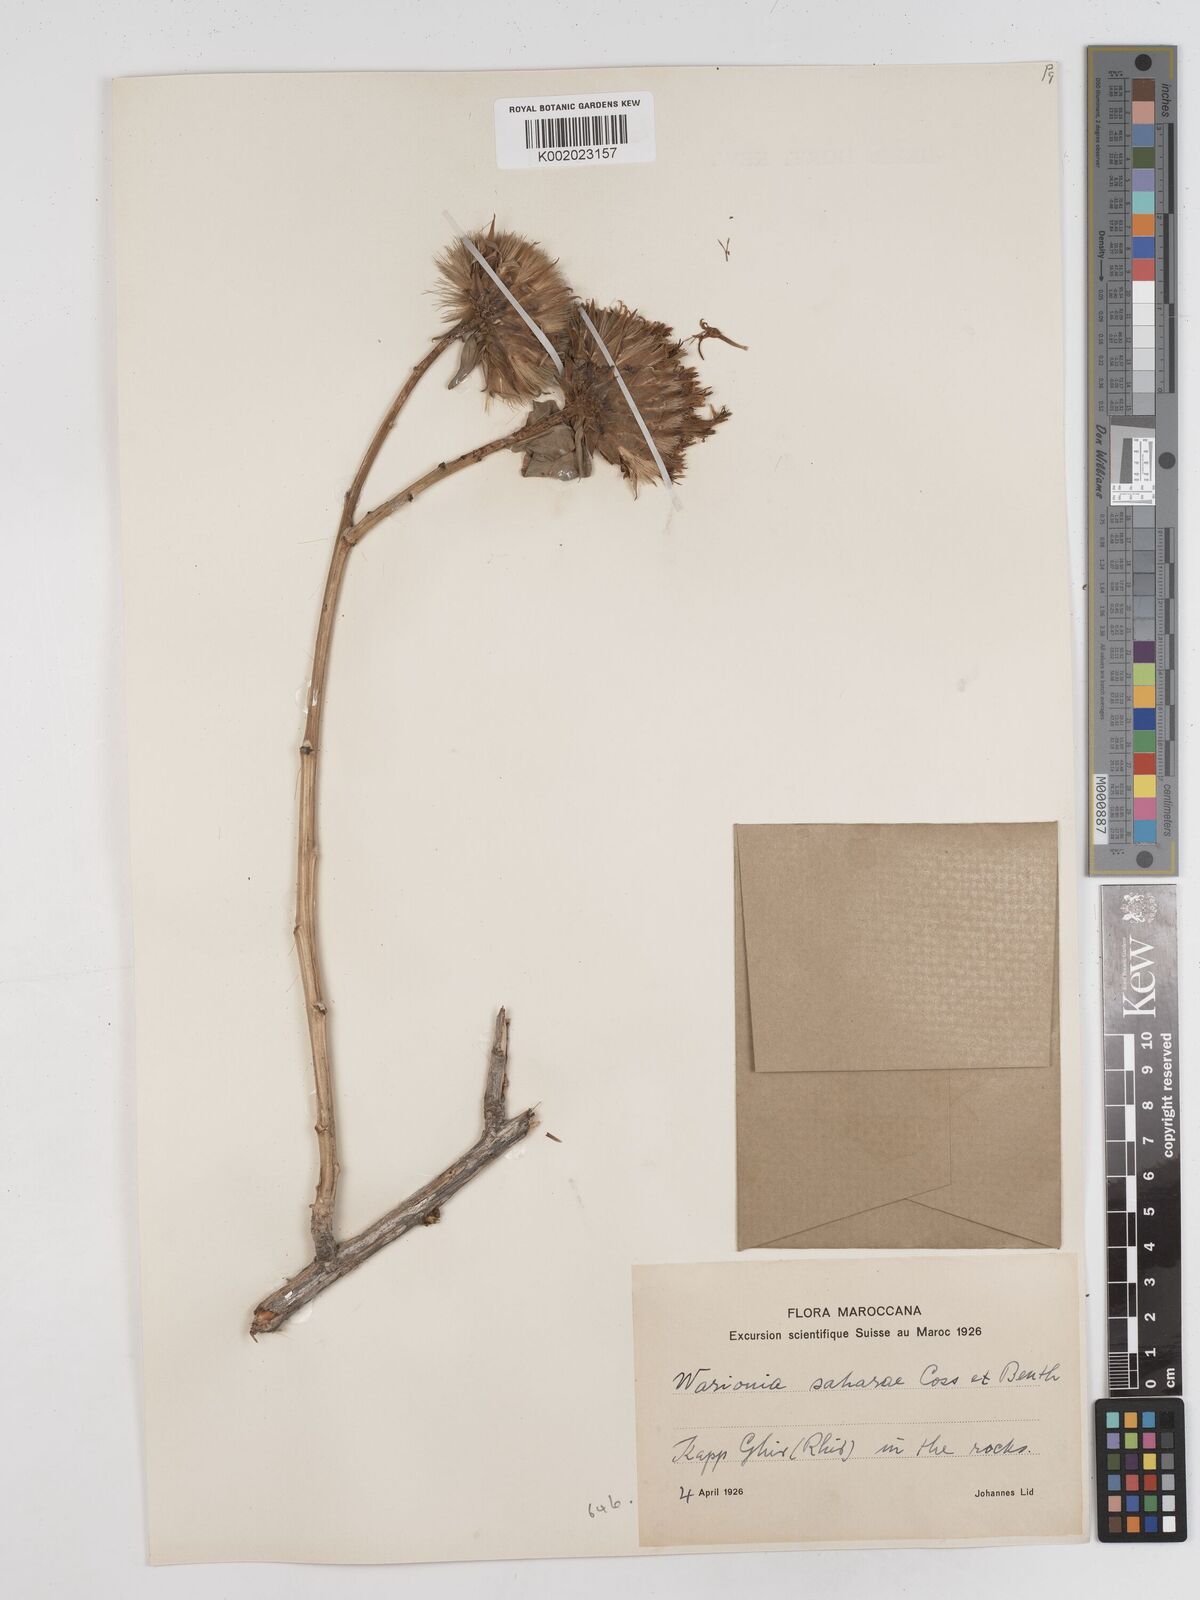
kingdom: Plantae
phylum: Tracheophyta
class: Magnoliopsida
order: Asterales
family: Asteraceae
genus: Warionia
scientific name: Warionia saharae
